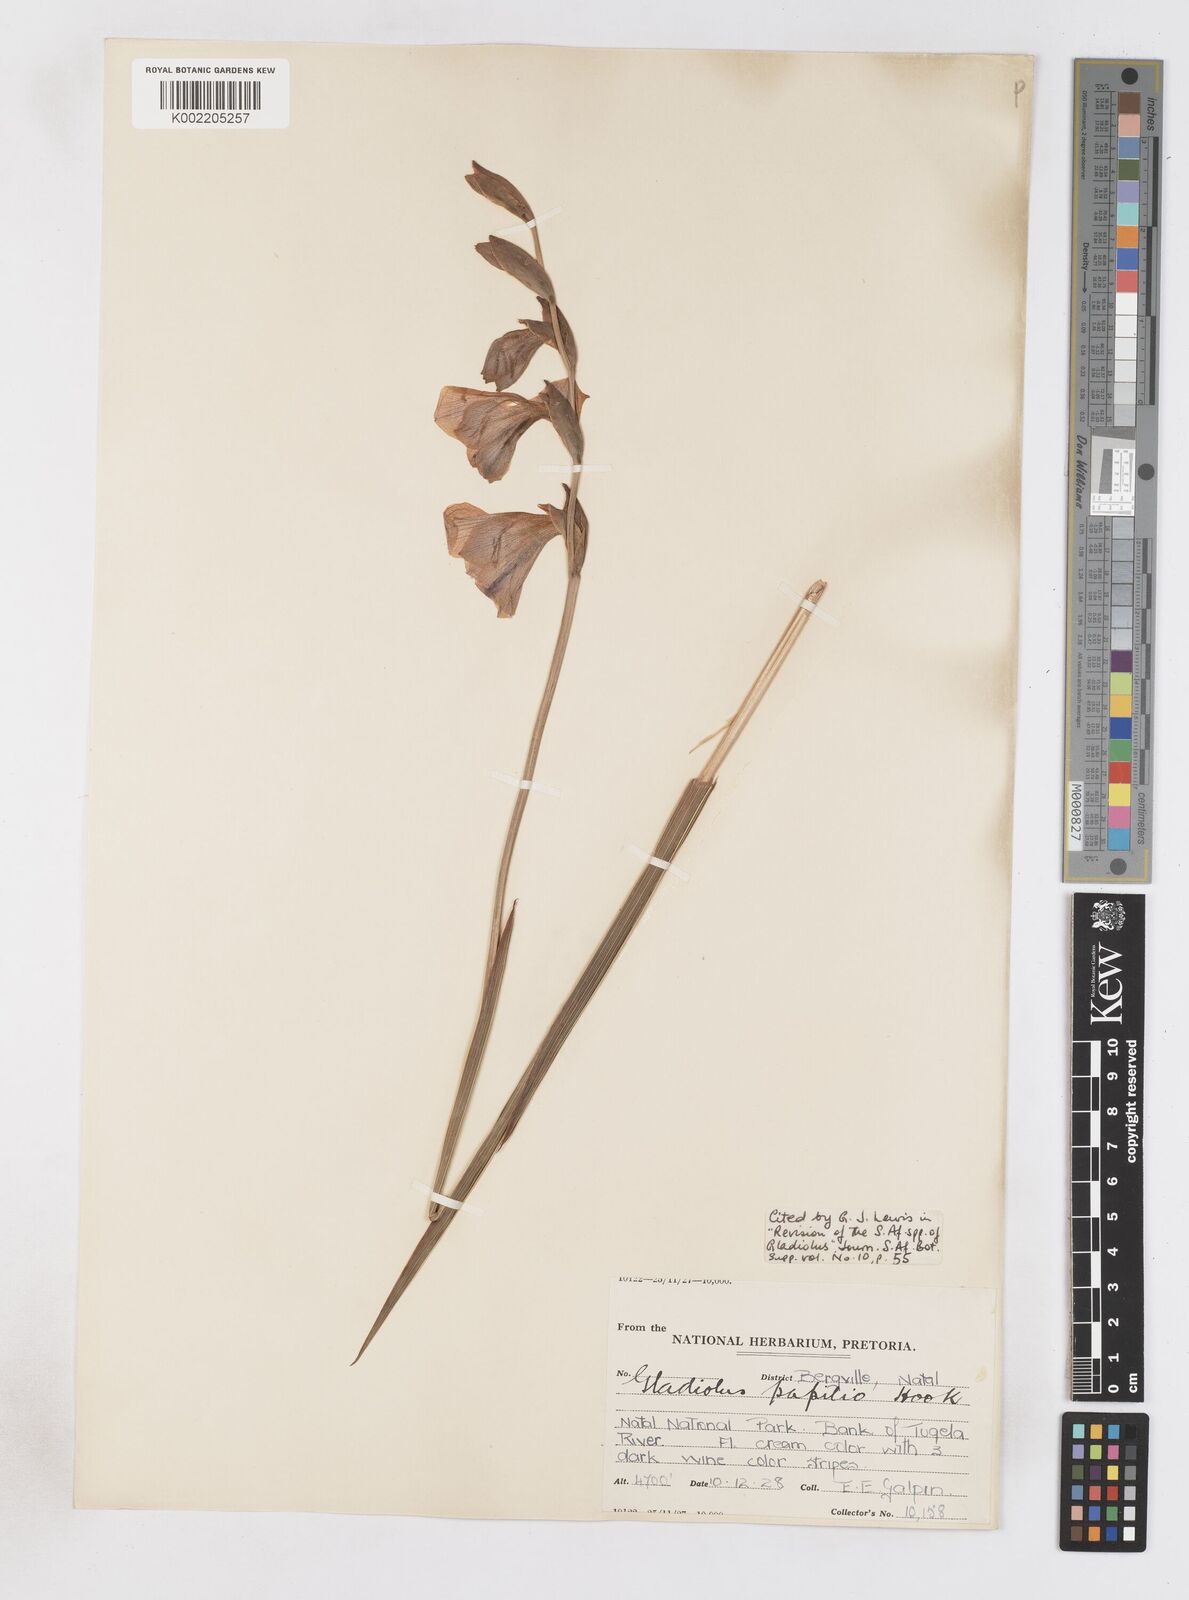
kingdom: Plantae
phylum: Tracheophyta
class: Liliopsida
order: Asparagales
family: Iridaceae
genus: Gladiolus
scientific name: Gladiolus papilio
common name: Goldblotch gladiolus
